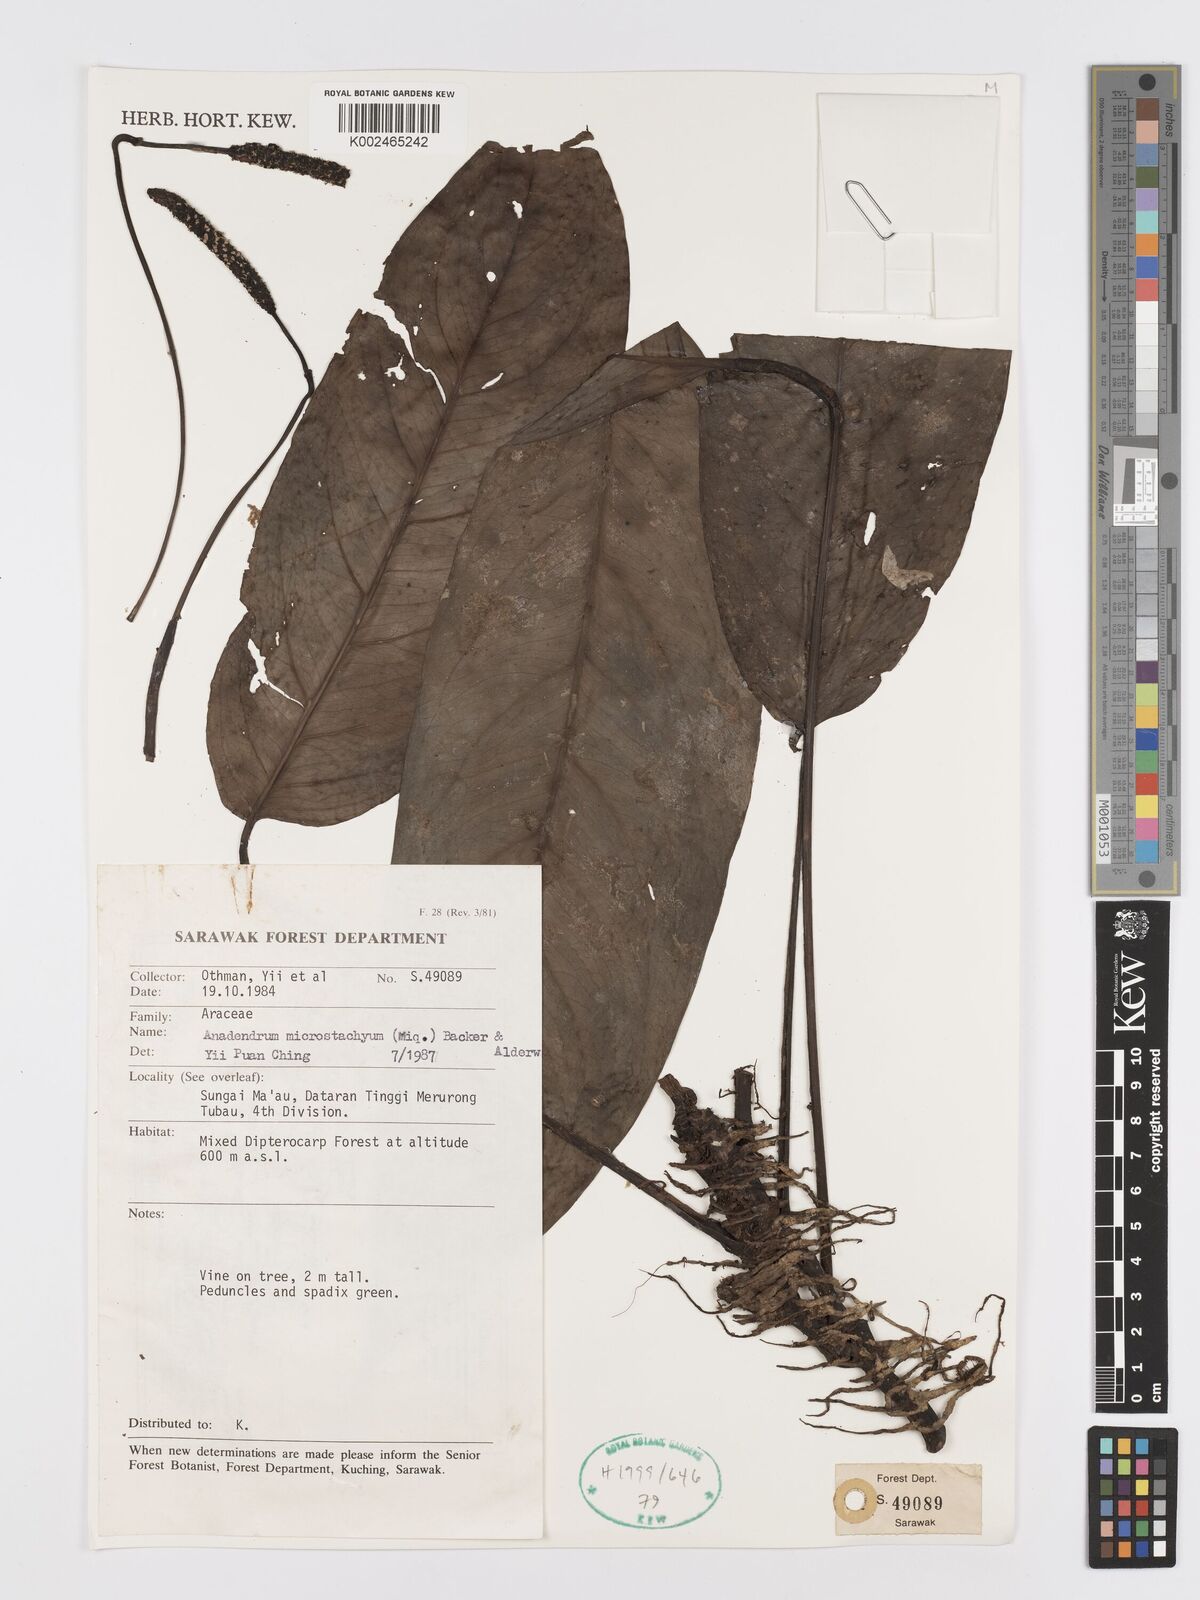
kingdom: Plantae
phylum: Tracheophyta
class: Liliopsida
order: Alismatales
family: Araceae
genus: Anadendrum
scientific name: Anadendrum microstachyum
